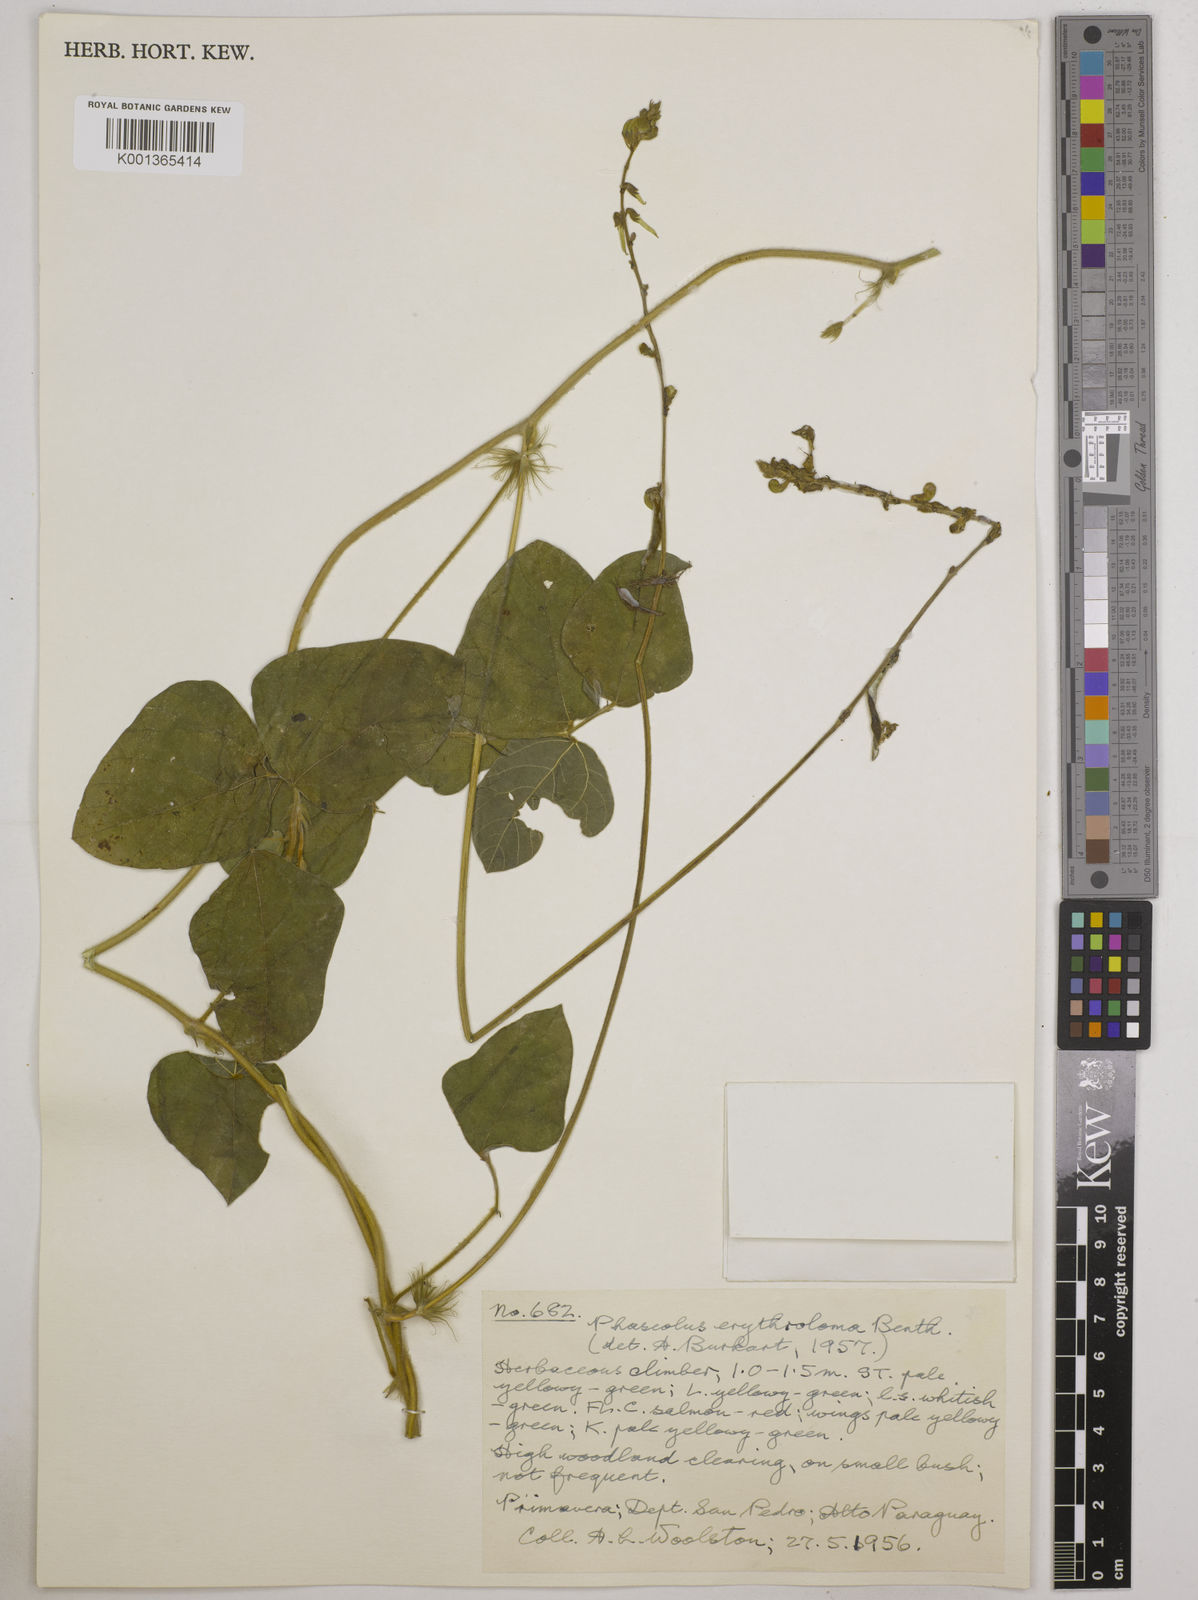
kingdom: Plantae
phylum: Tracheophyta
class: Magnoliopsida
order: Fabales
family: Fabaceae
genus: Macroptilium
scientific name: Macroptilium erythroloma
